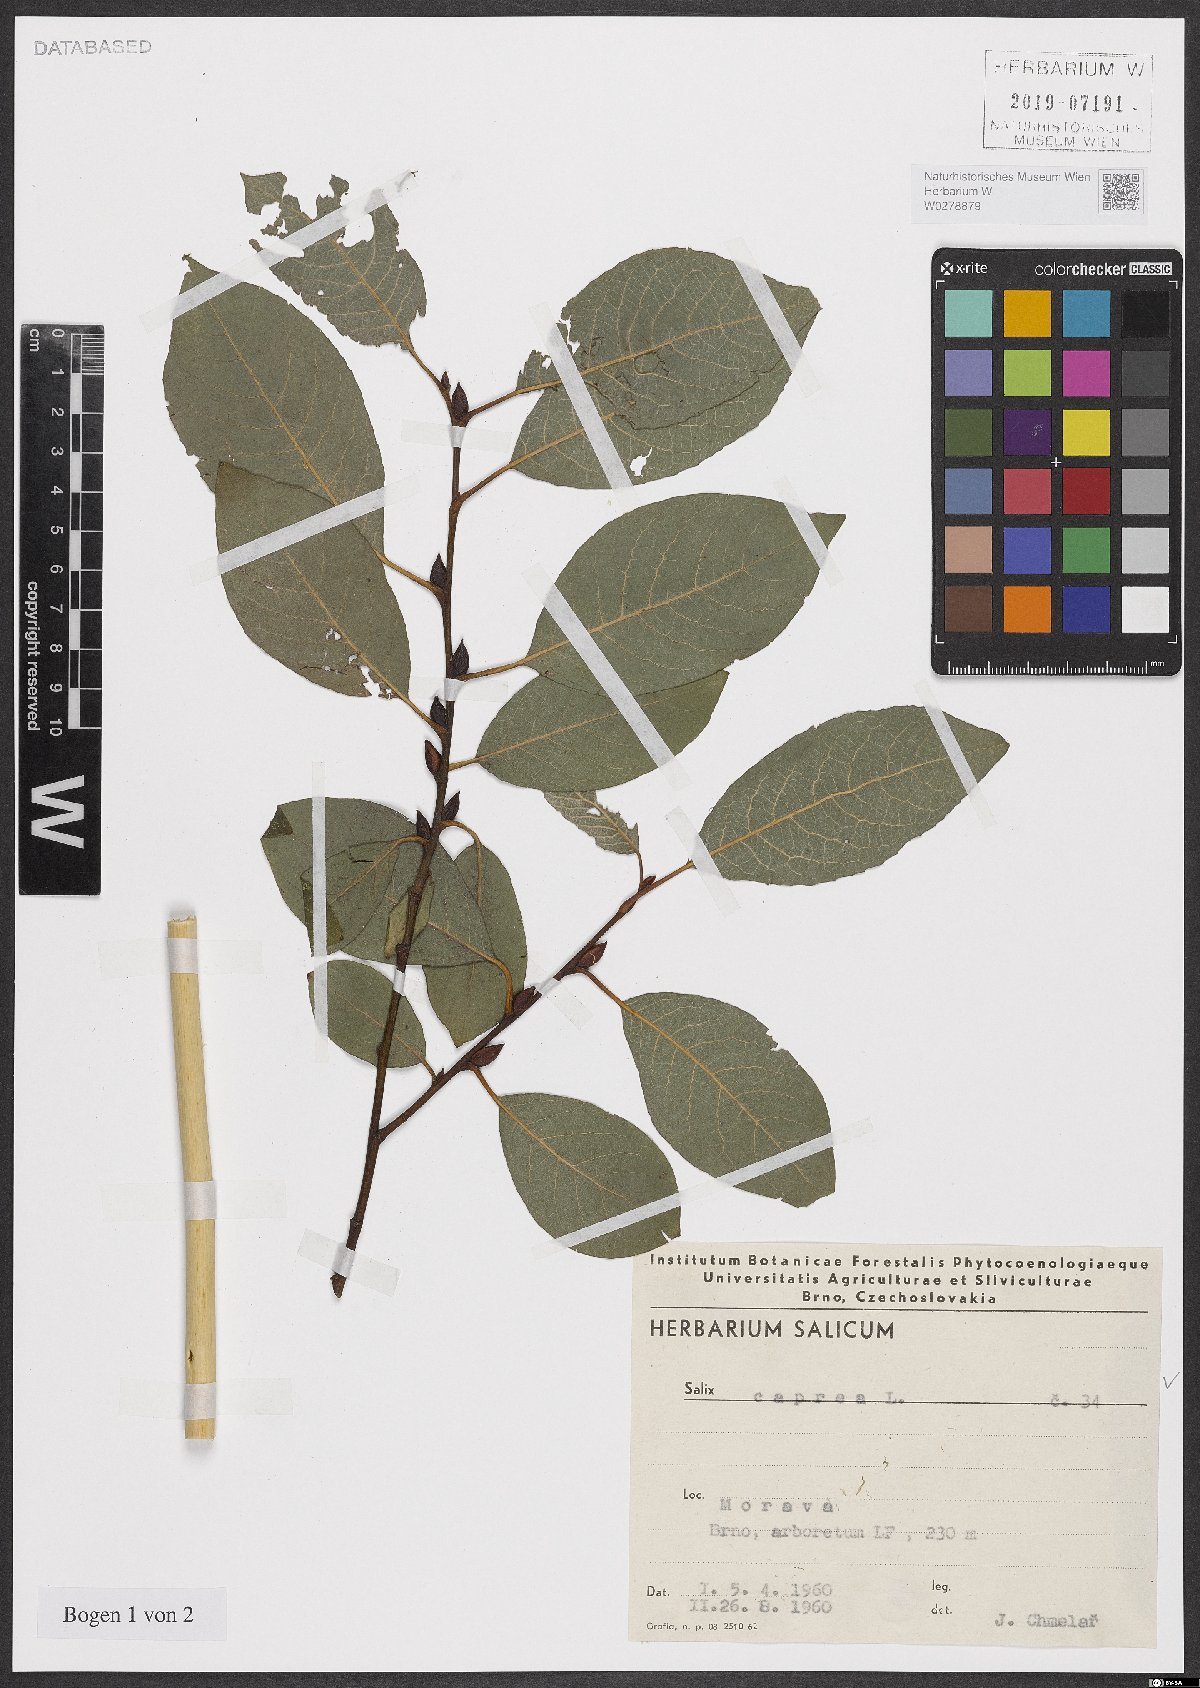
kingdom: Plantae
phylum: Tracheophyta
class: Magnoliopsida
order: Malpighiales
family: Salicaceae
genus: Salix
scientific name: Salix caprea
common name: Goat willow
